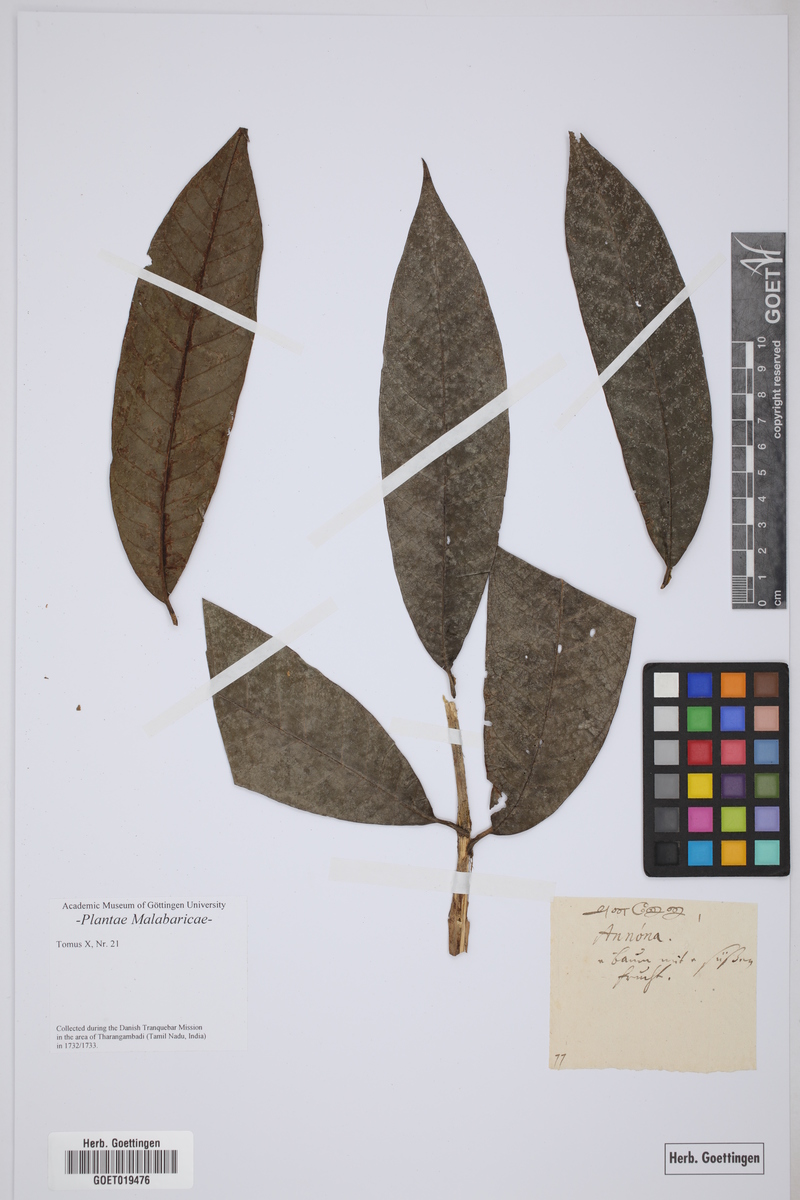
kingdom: Plantae
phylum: Tracheophyta
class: Magnoliopsida
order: Magnoliales
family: Annonaceae
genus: Annona
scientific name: Annona
